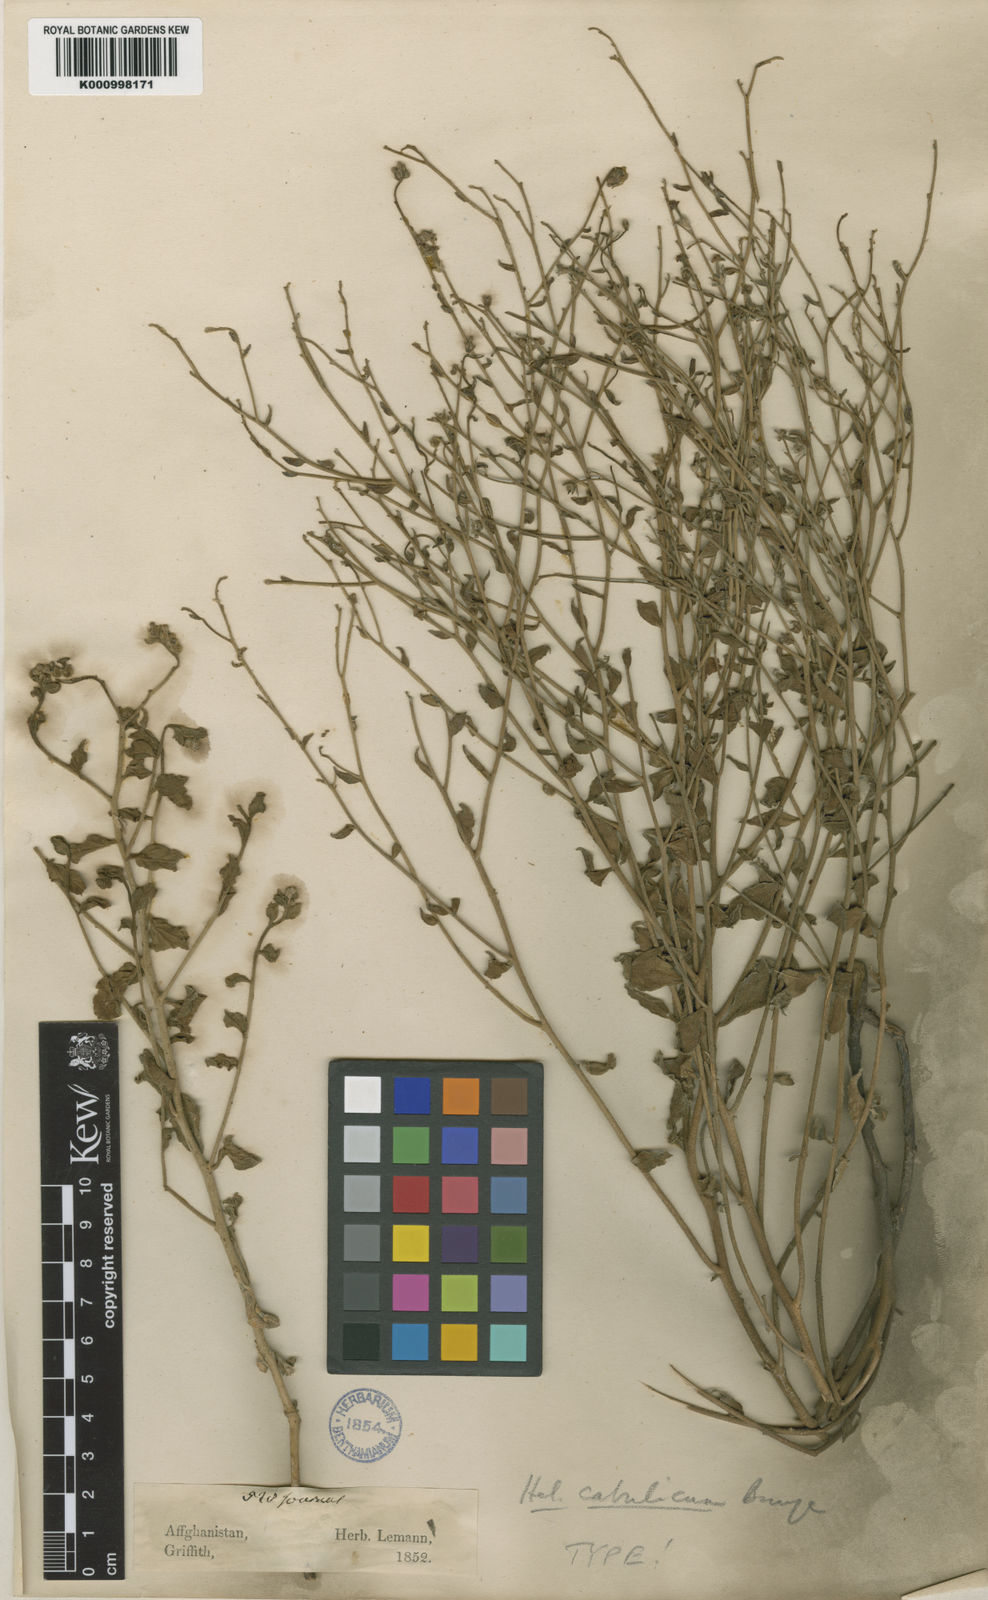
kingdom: Plantae
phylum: Tracheophyta
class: Magnoliopsida
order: Boraginales
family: Heliotropiaceae
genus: Heliotropium
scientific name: Heliotropium cabulicum
